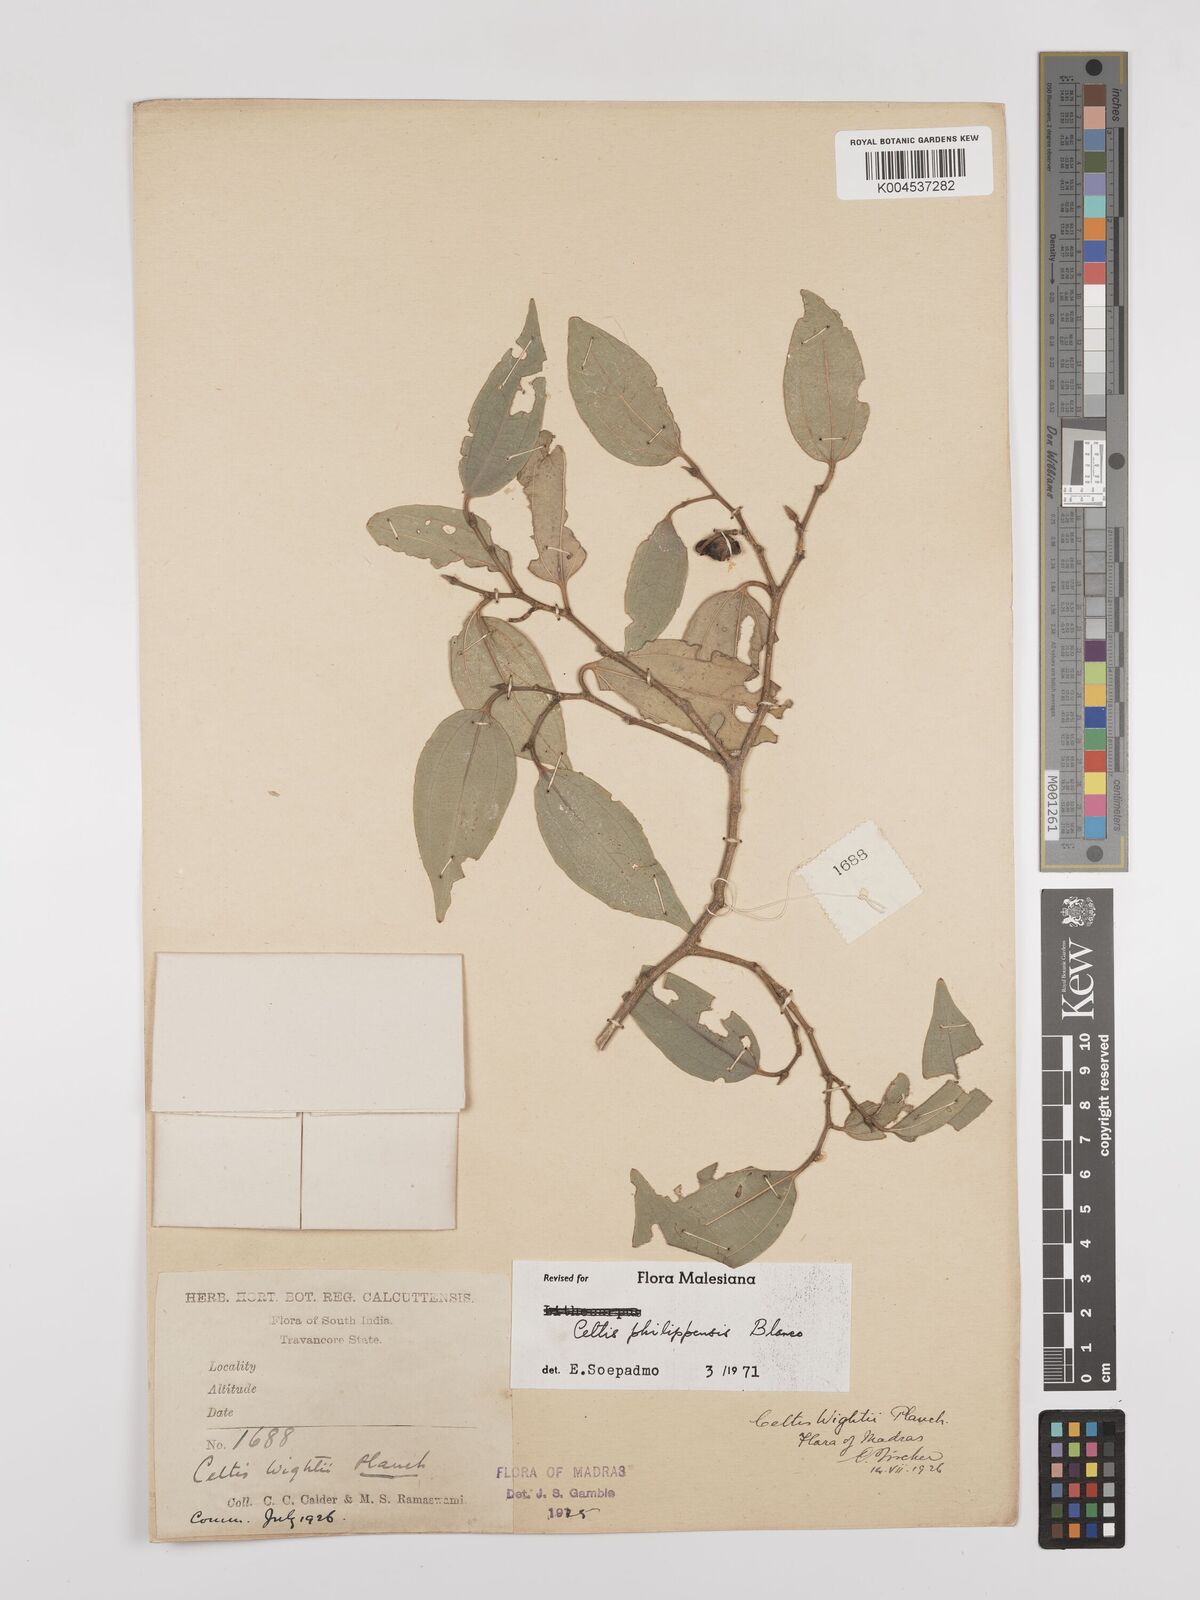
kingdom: Plantae
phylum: Tracheophyta
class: Magnoliopsida
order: Rosales
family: Cannabaceae
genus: Celtis
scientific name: Celtis philippensis
